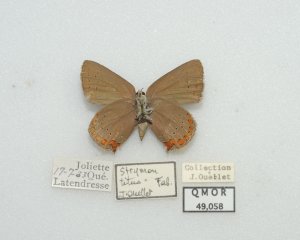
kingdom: Animalia
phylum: Arthropoda
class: Insecta
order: Lepidoptera
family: Lycaenidae
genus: Harkenclenus
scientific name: Harkenclenus titus
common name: Coral Hairstreak
